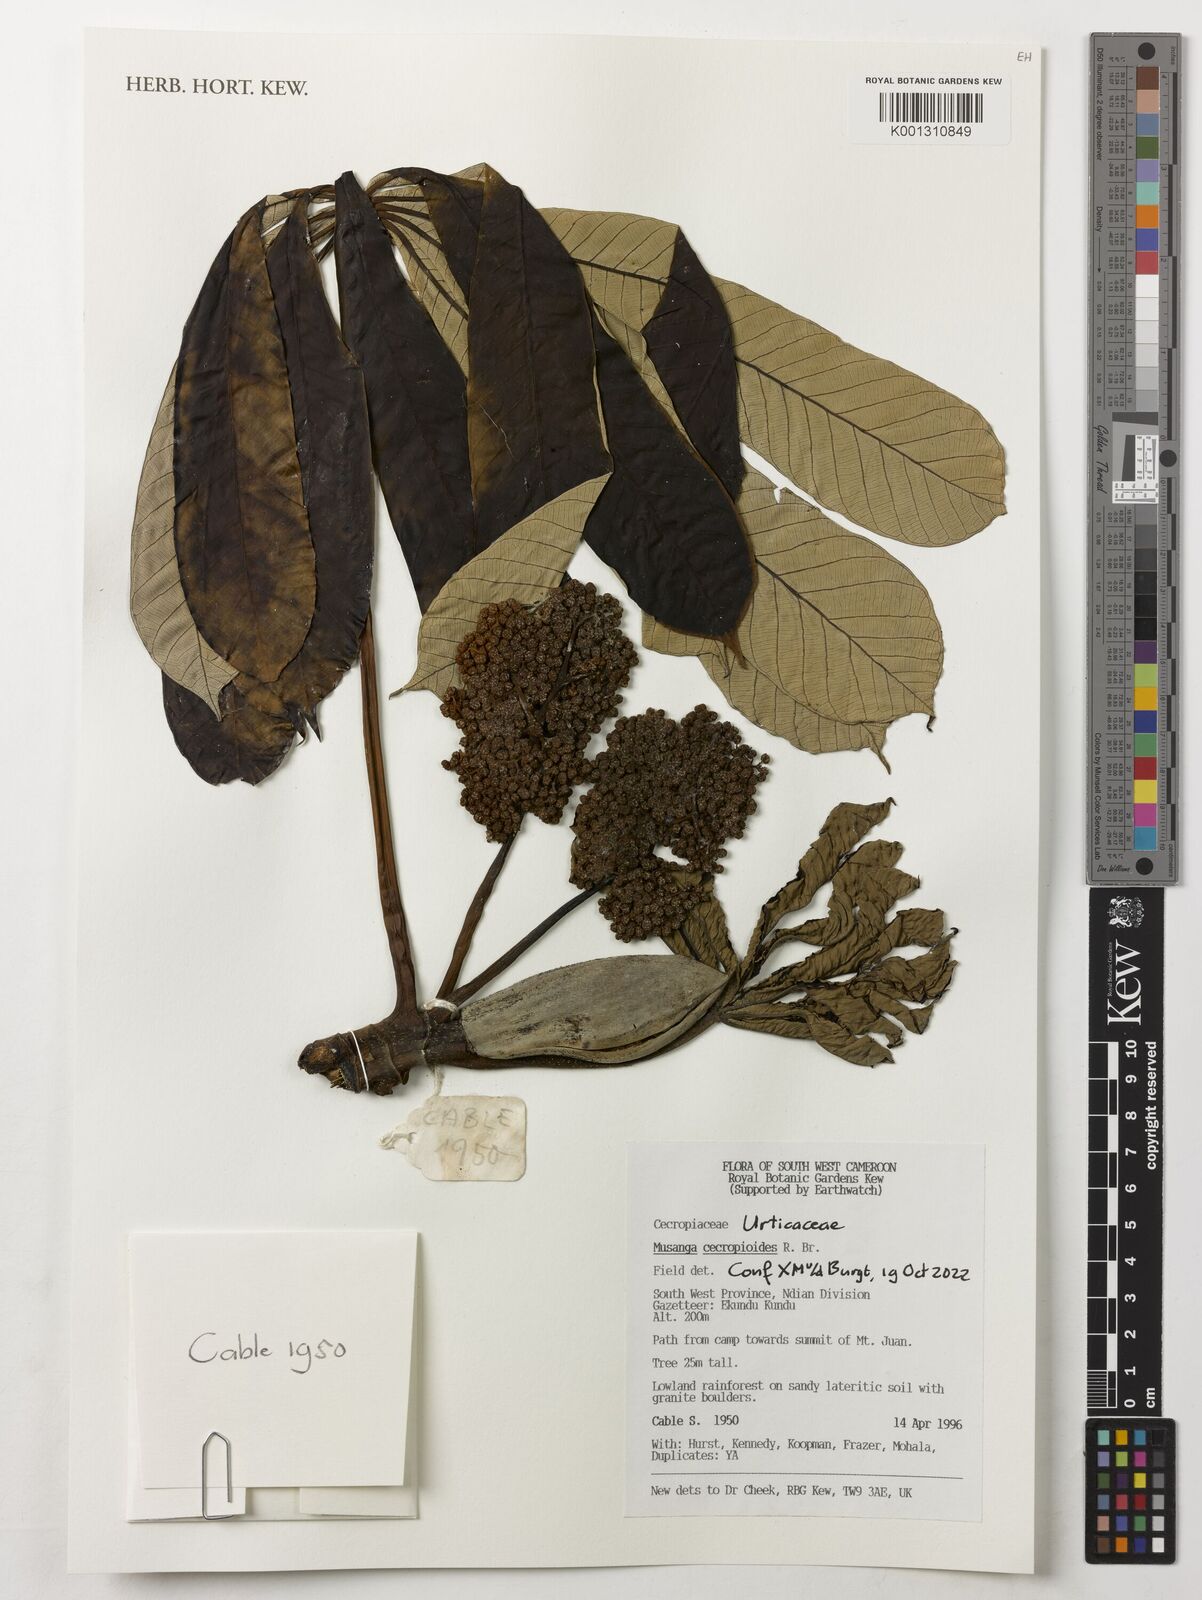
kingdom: Plantae
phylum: Tracheophyta
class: Magnoliopsida
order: Rosales
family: Urticaceae
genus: Musanga
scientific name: Musanga cecropioides
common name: African corkwood
